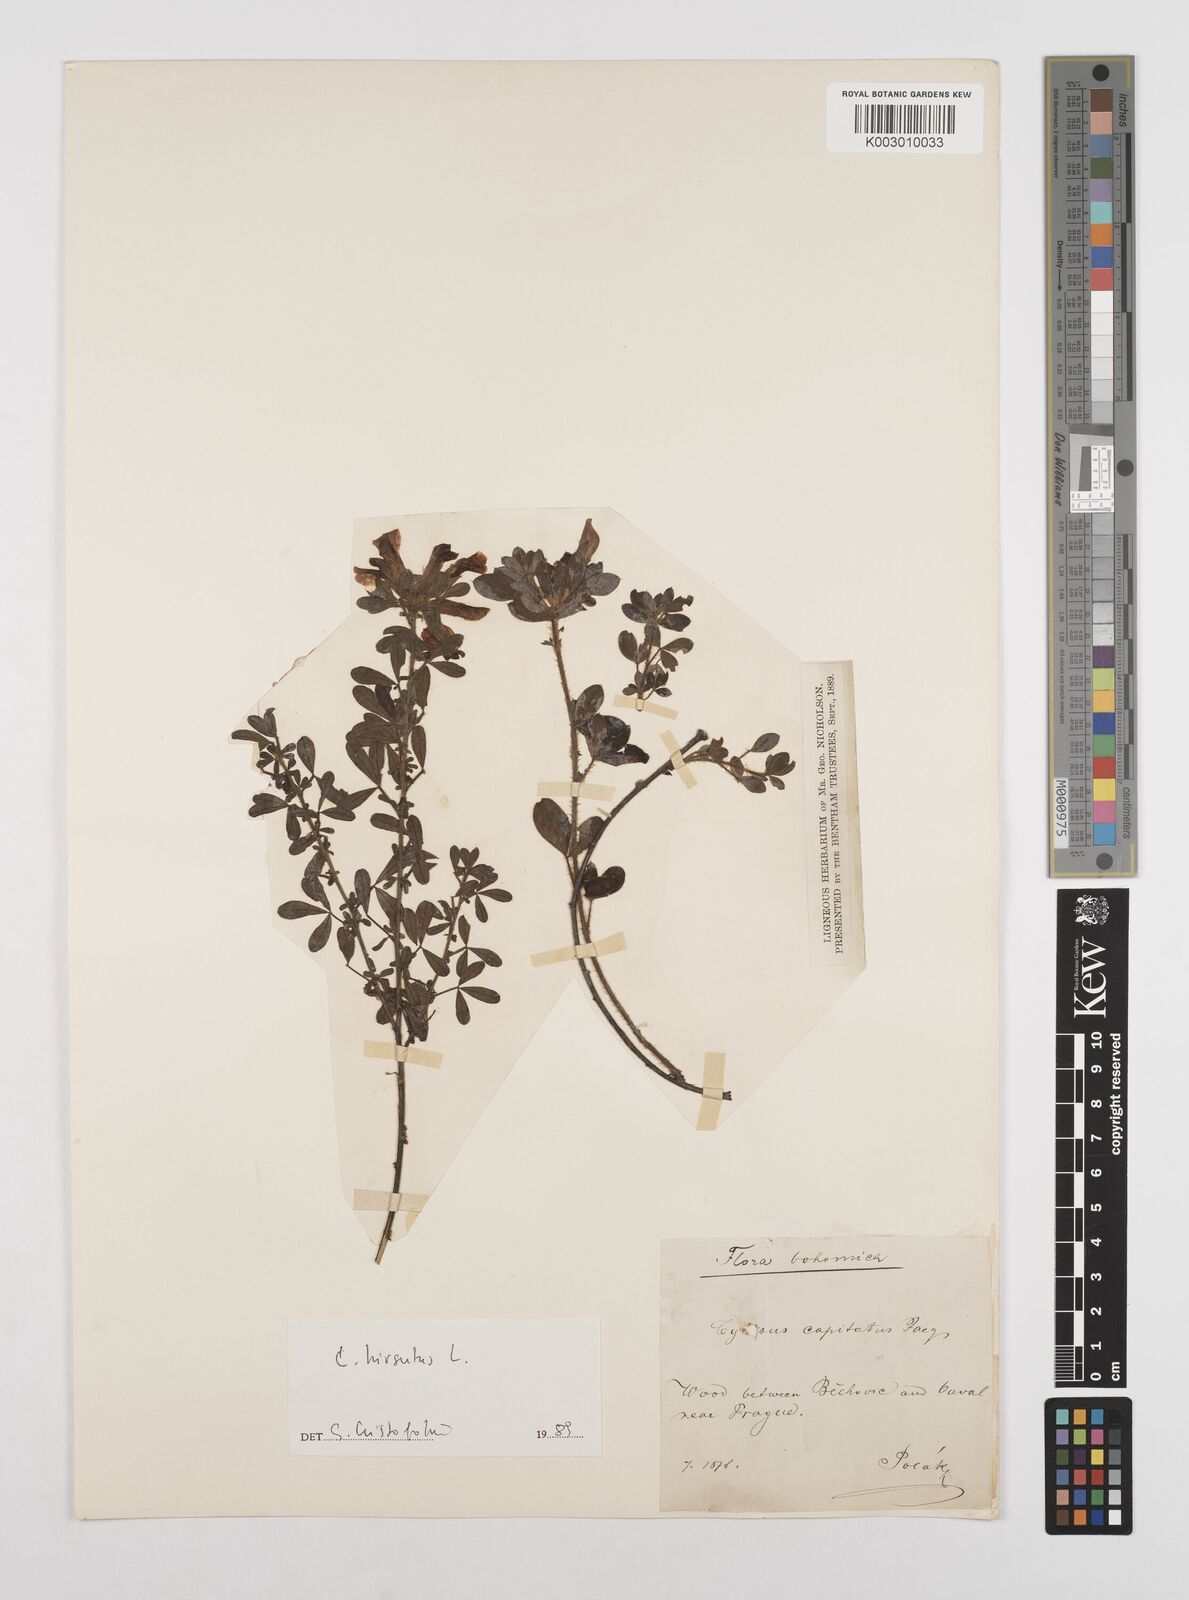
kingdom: Plantae
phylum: Tracheophyta
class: Magnoliopsida
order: Fabales
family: Fabaceae
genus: Chamaecytisus
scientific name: Chamaecytisus hirsutus
